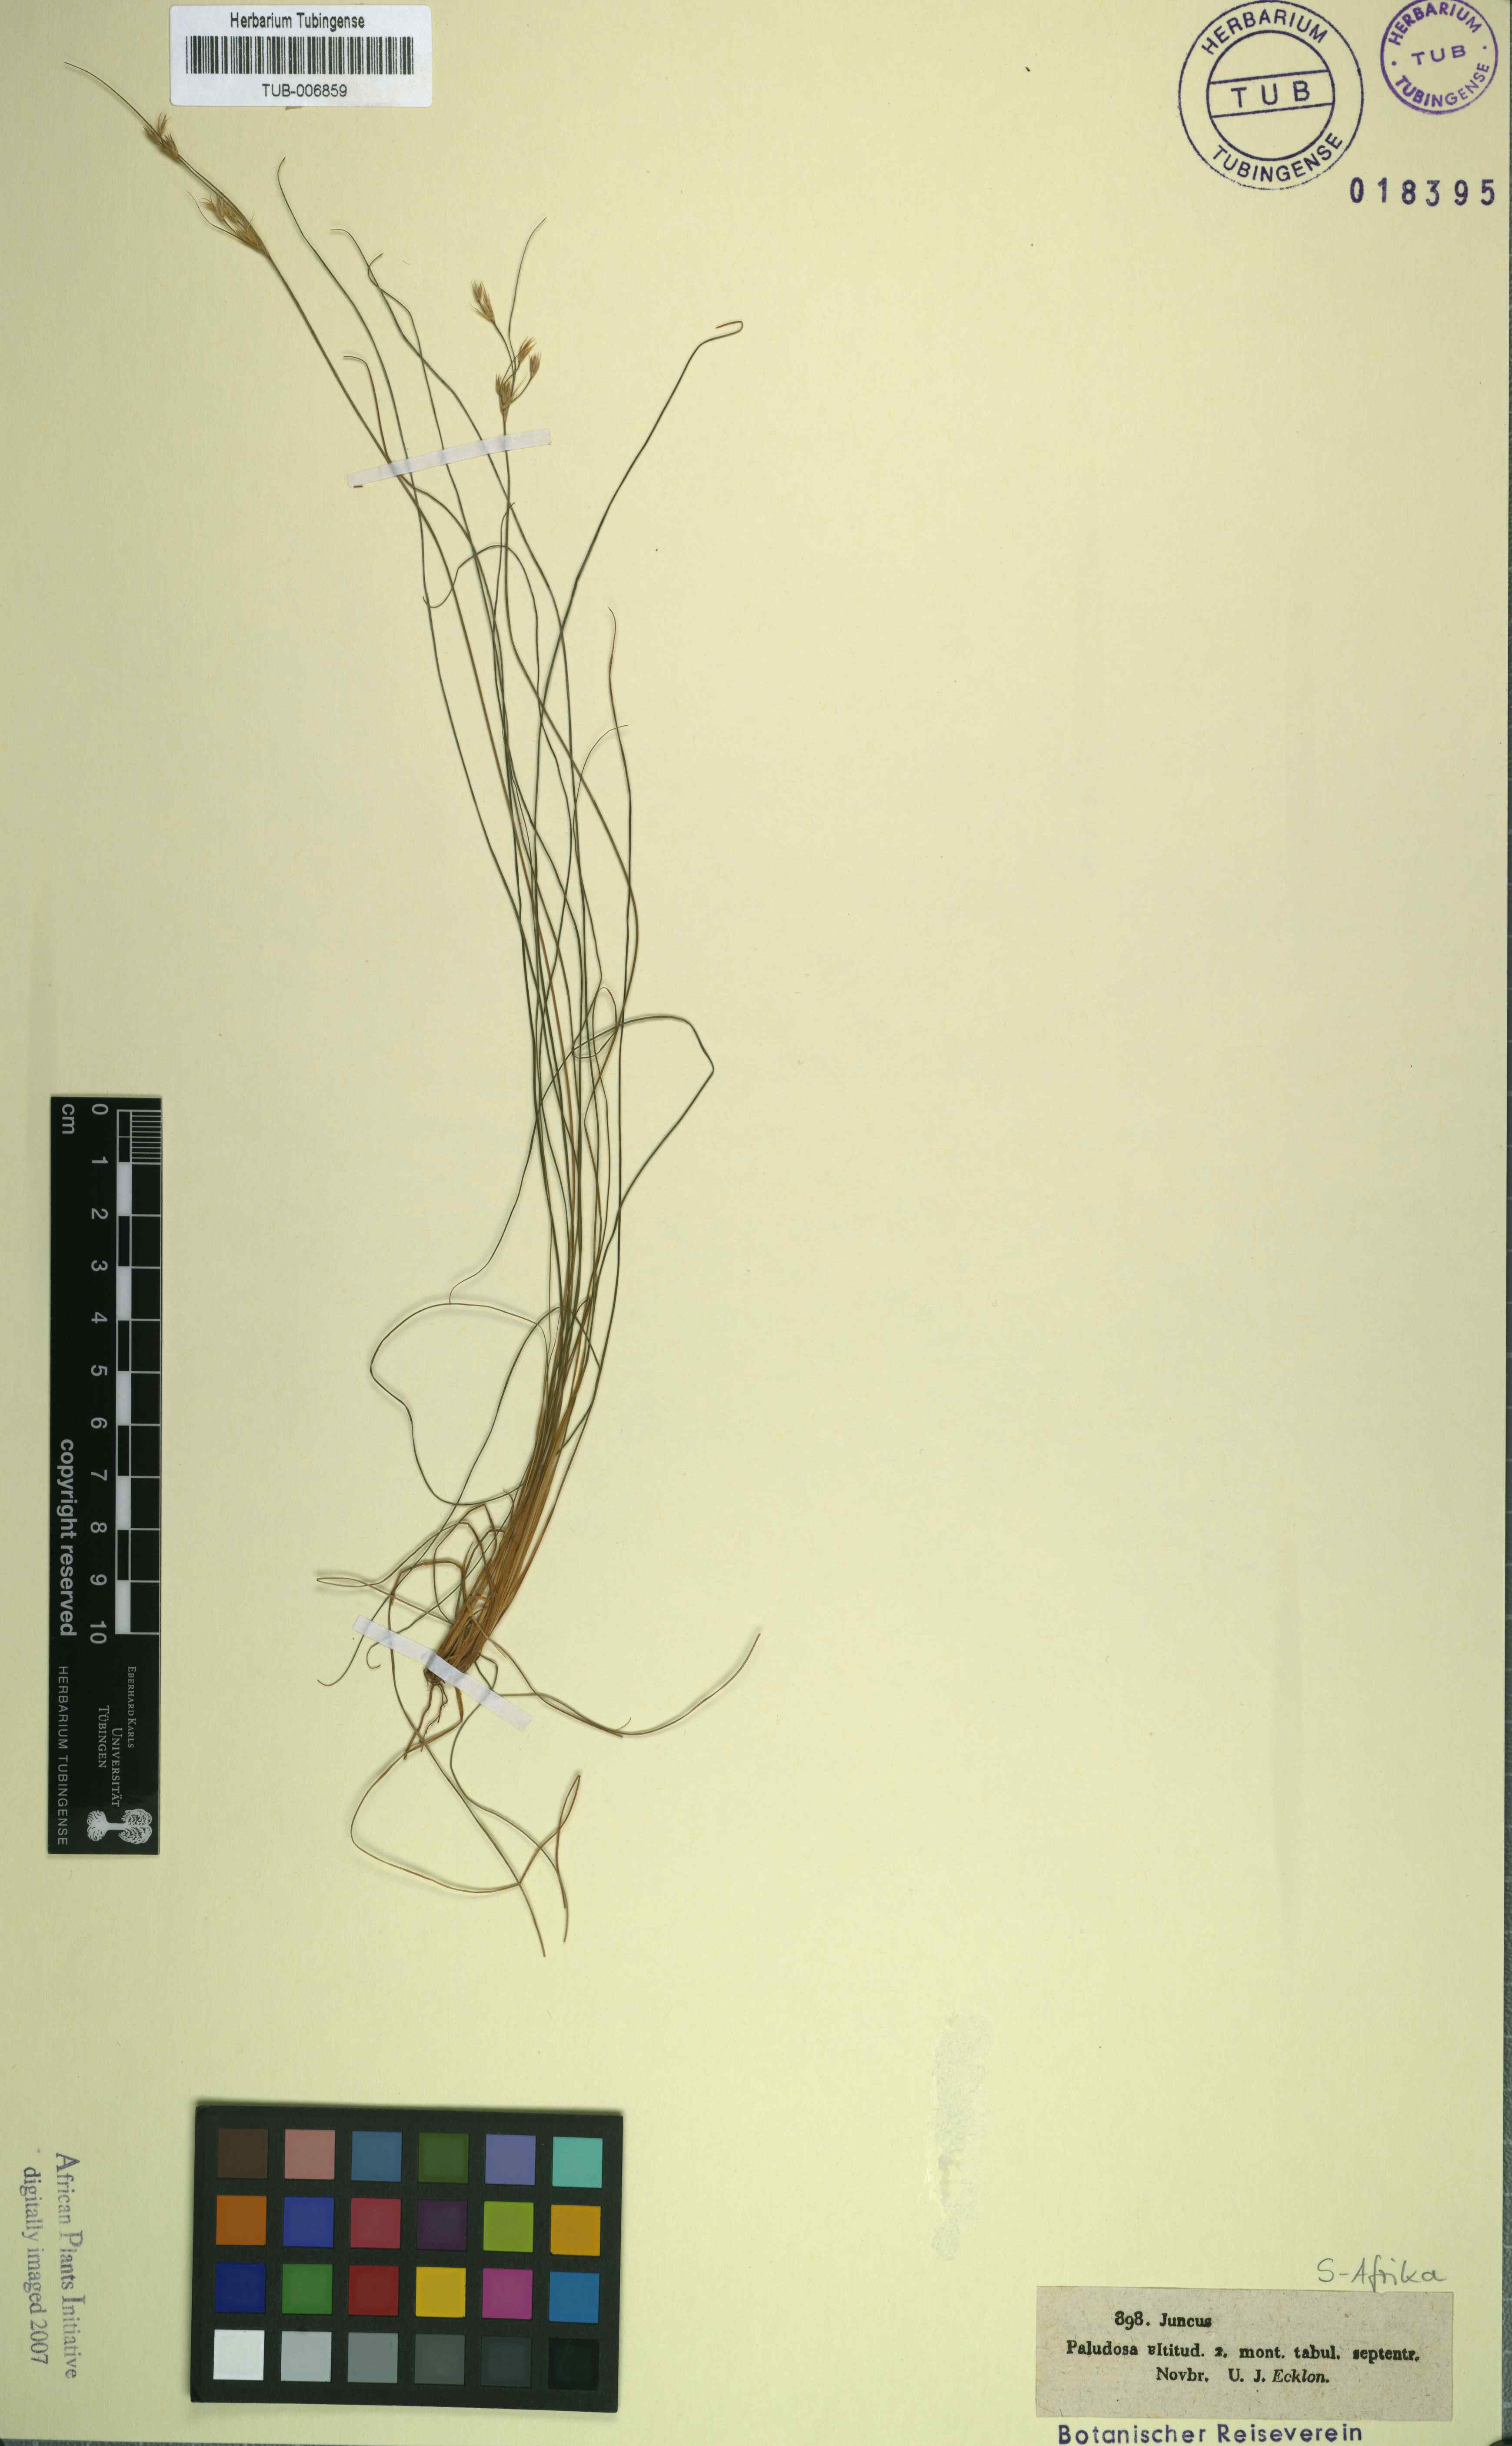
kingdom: Plantae
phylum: Tracheophyta
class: Liliopsida
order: Poales
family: Juncaceae
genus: Juncus
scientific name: Juncus lomatophyllus
